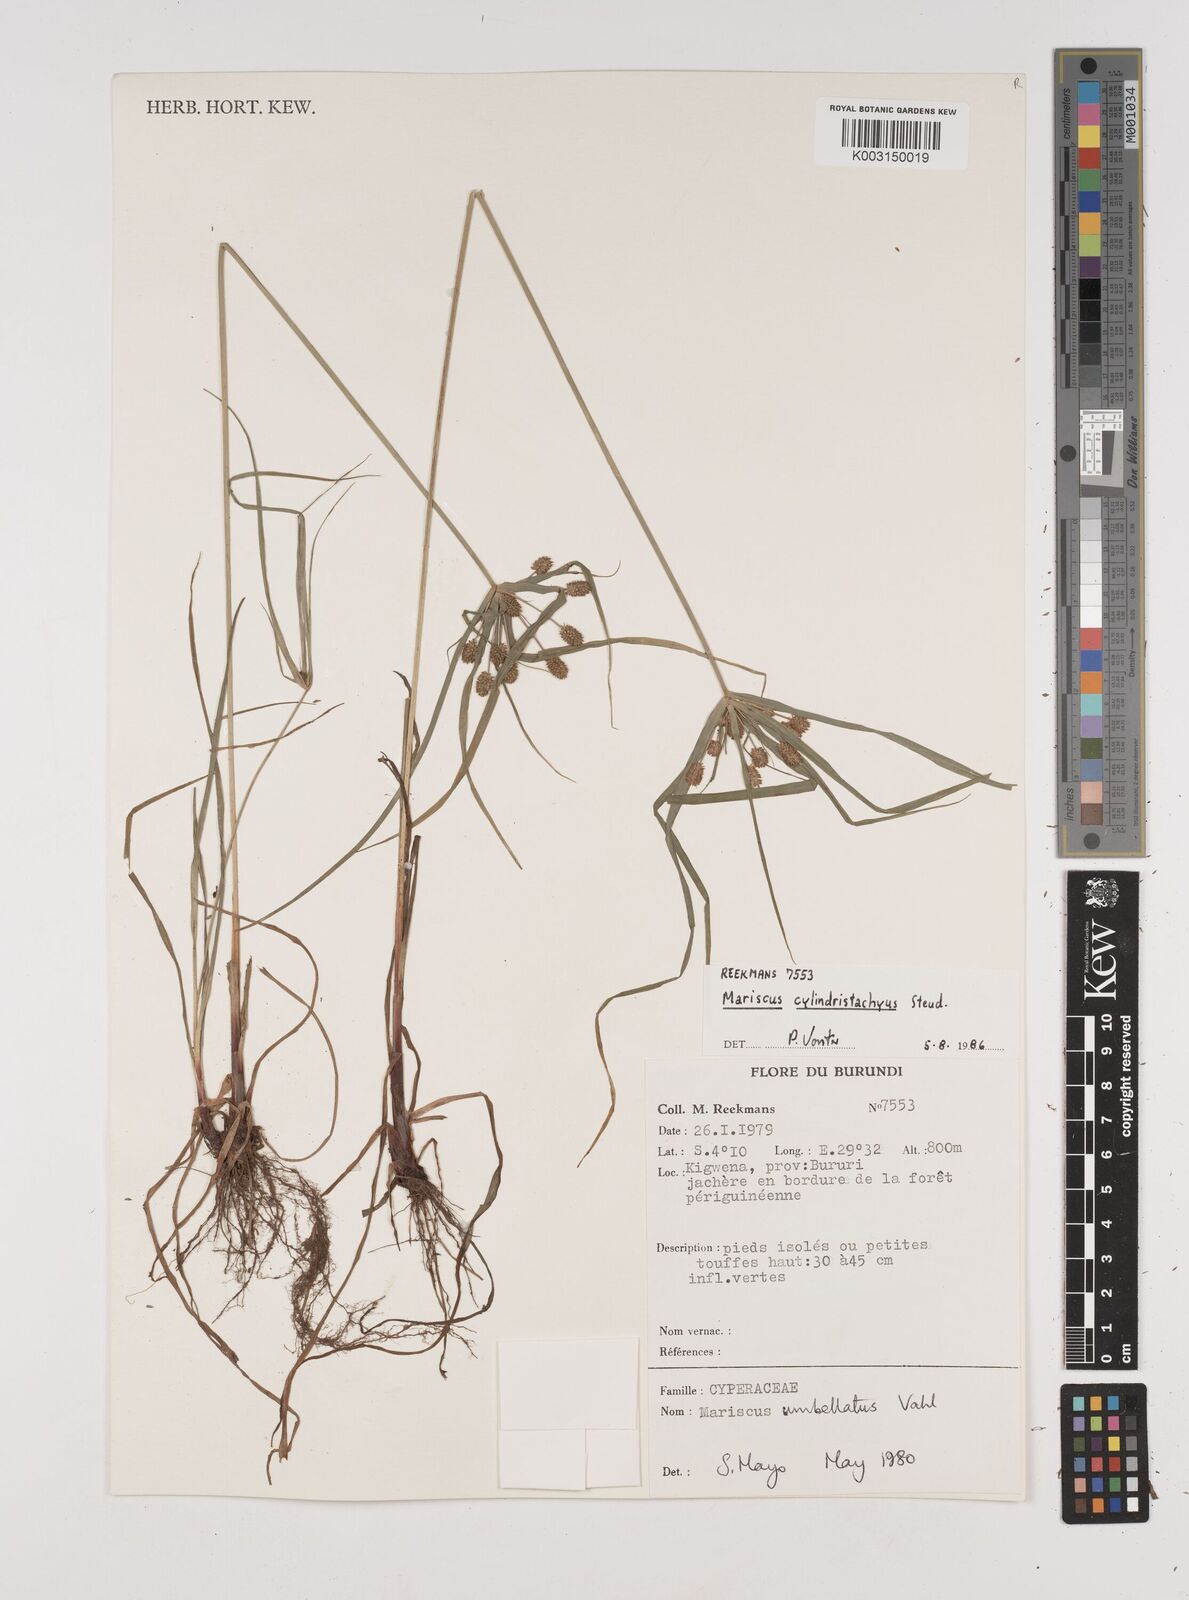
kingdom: Plantae
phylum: Tracheophyta
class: Liliopsida
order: Poales
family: Cyperaceae
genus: Cyperus
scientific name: Cyperus cyperoides
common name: Pacific island flat sedge
